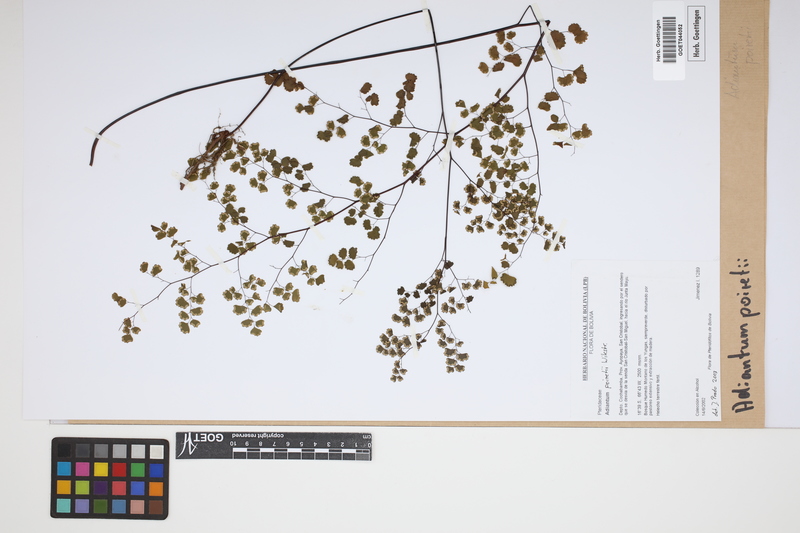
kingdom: Plantae
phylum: Tracheophyta
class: Polypodiopsida
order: Polypodiales
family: Pteridaceae
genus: Adiantum
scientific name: Adiantum poiretii
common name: Mexican maidenhair
